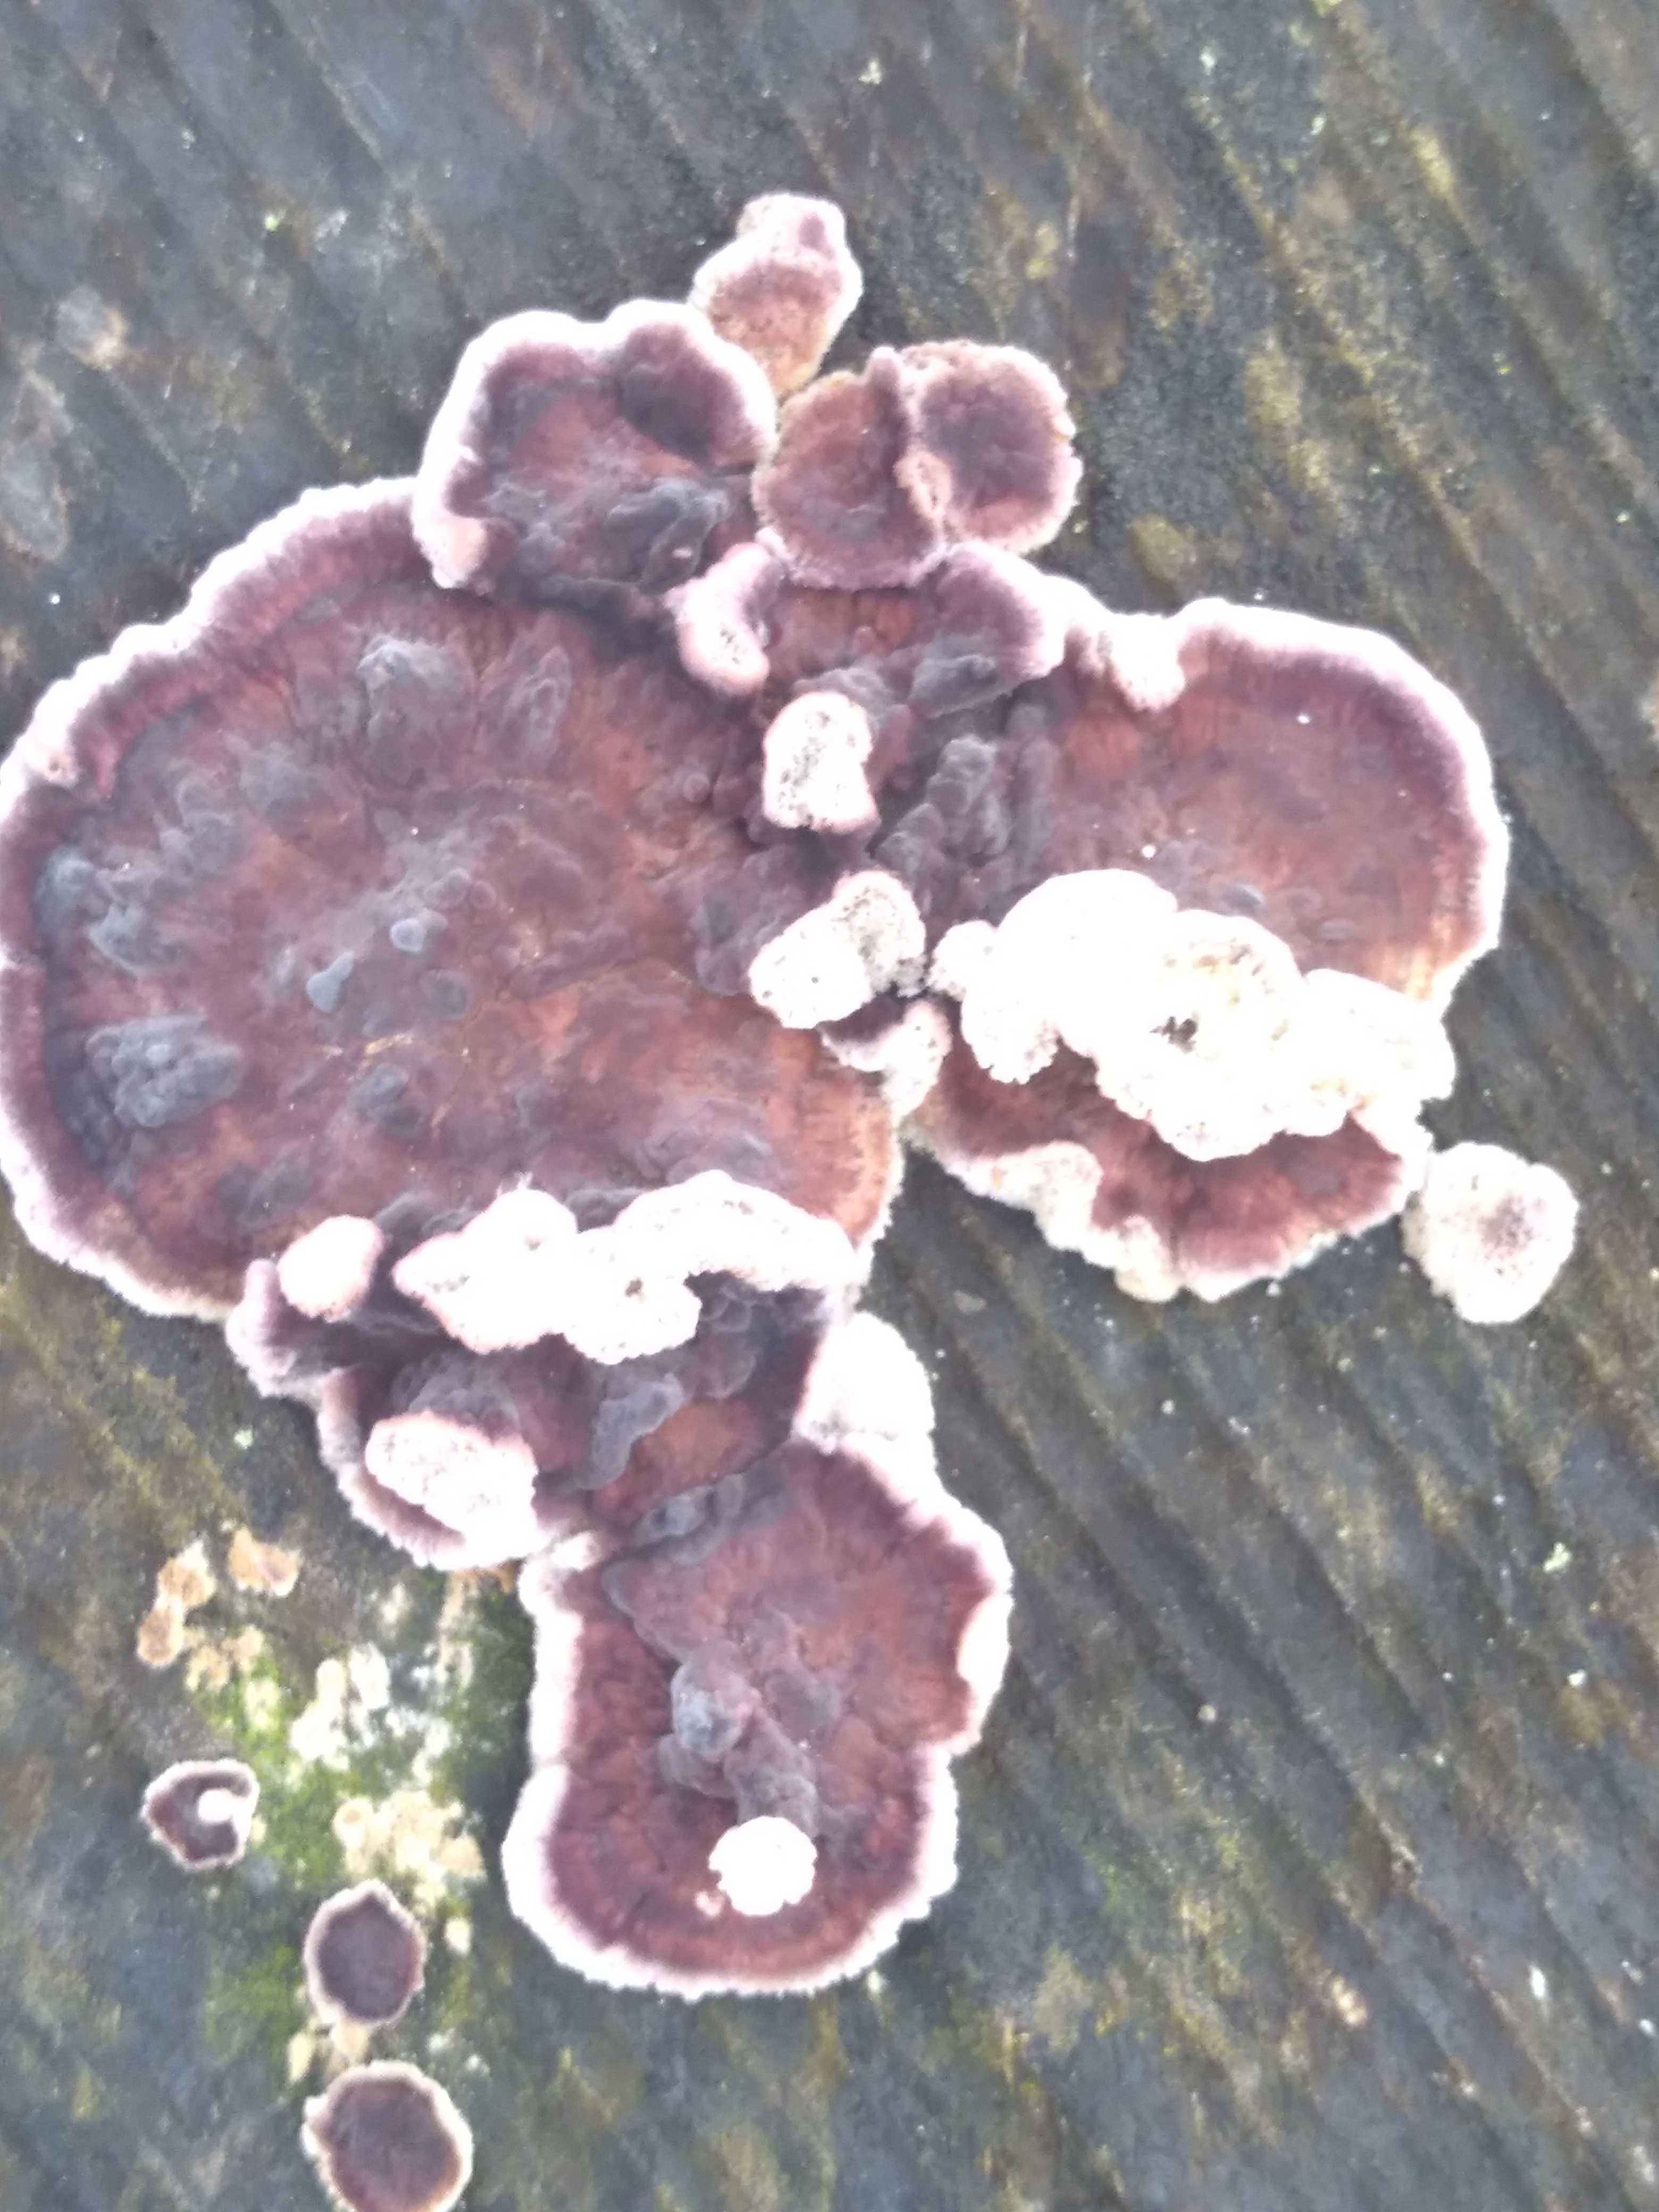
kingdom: Fungi
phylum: Basidiomycota
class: Agaricomycetes
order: Agaricales
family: Cyphellaceae
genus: Chondrostereum
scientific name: Chondrostereum purpureum
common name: purpurlædersvamp
